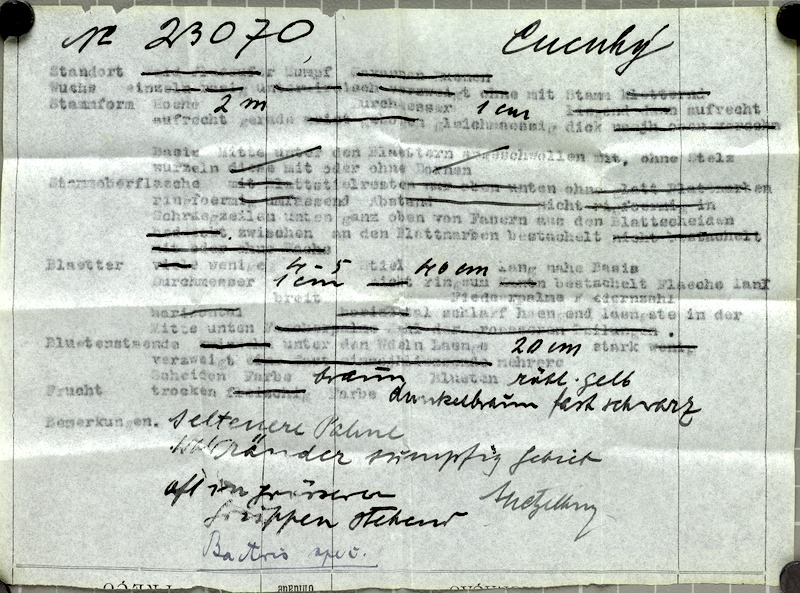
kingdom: Plantae
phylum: Tracheophyta
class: Liliopsida
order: Arecales
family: Arecaceae
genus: Bactris
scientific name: Bactris maraja
